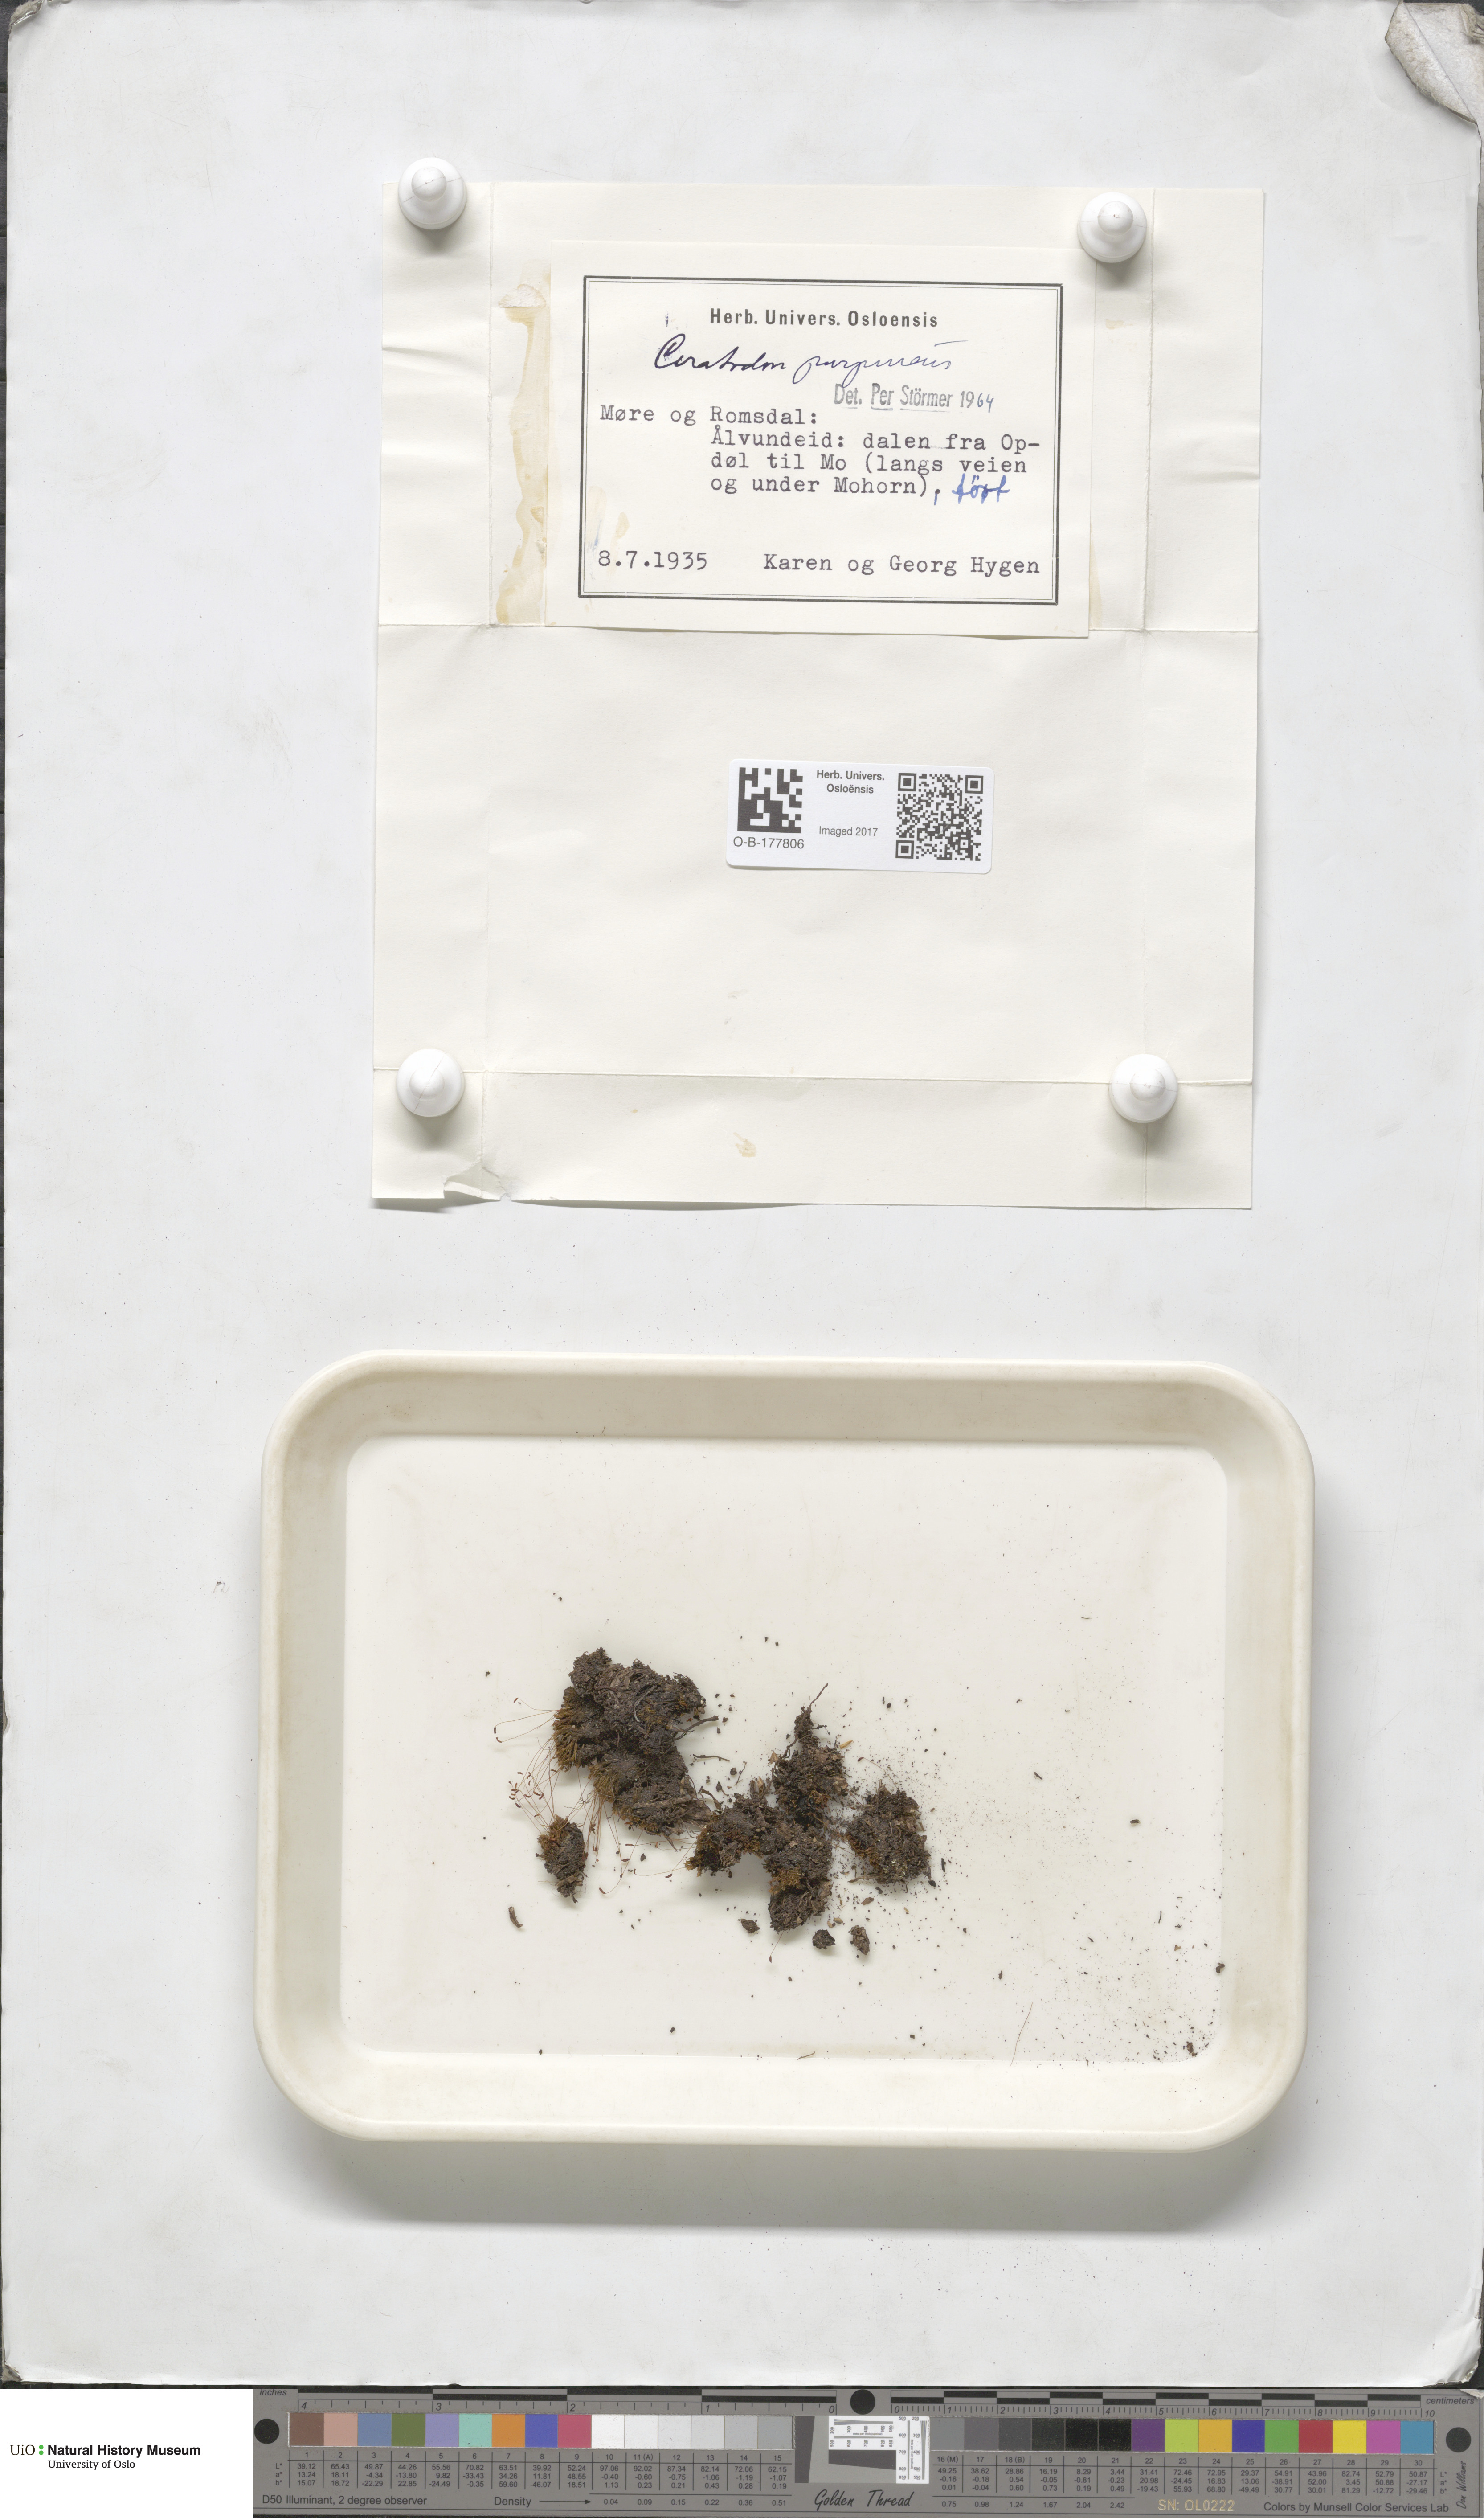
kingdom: Plantae
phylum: Bryophyta
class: Bryopsida
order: Dicranales
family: Ditrichaceae
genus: Ceratodon
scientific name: Ceratodon purpureus
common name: Redshank
